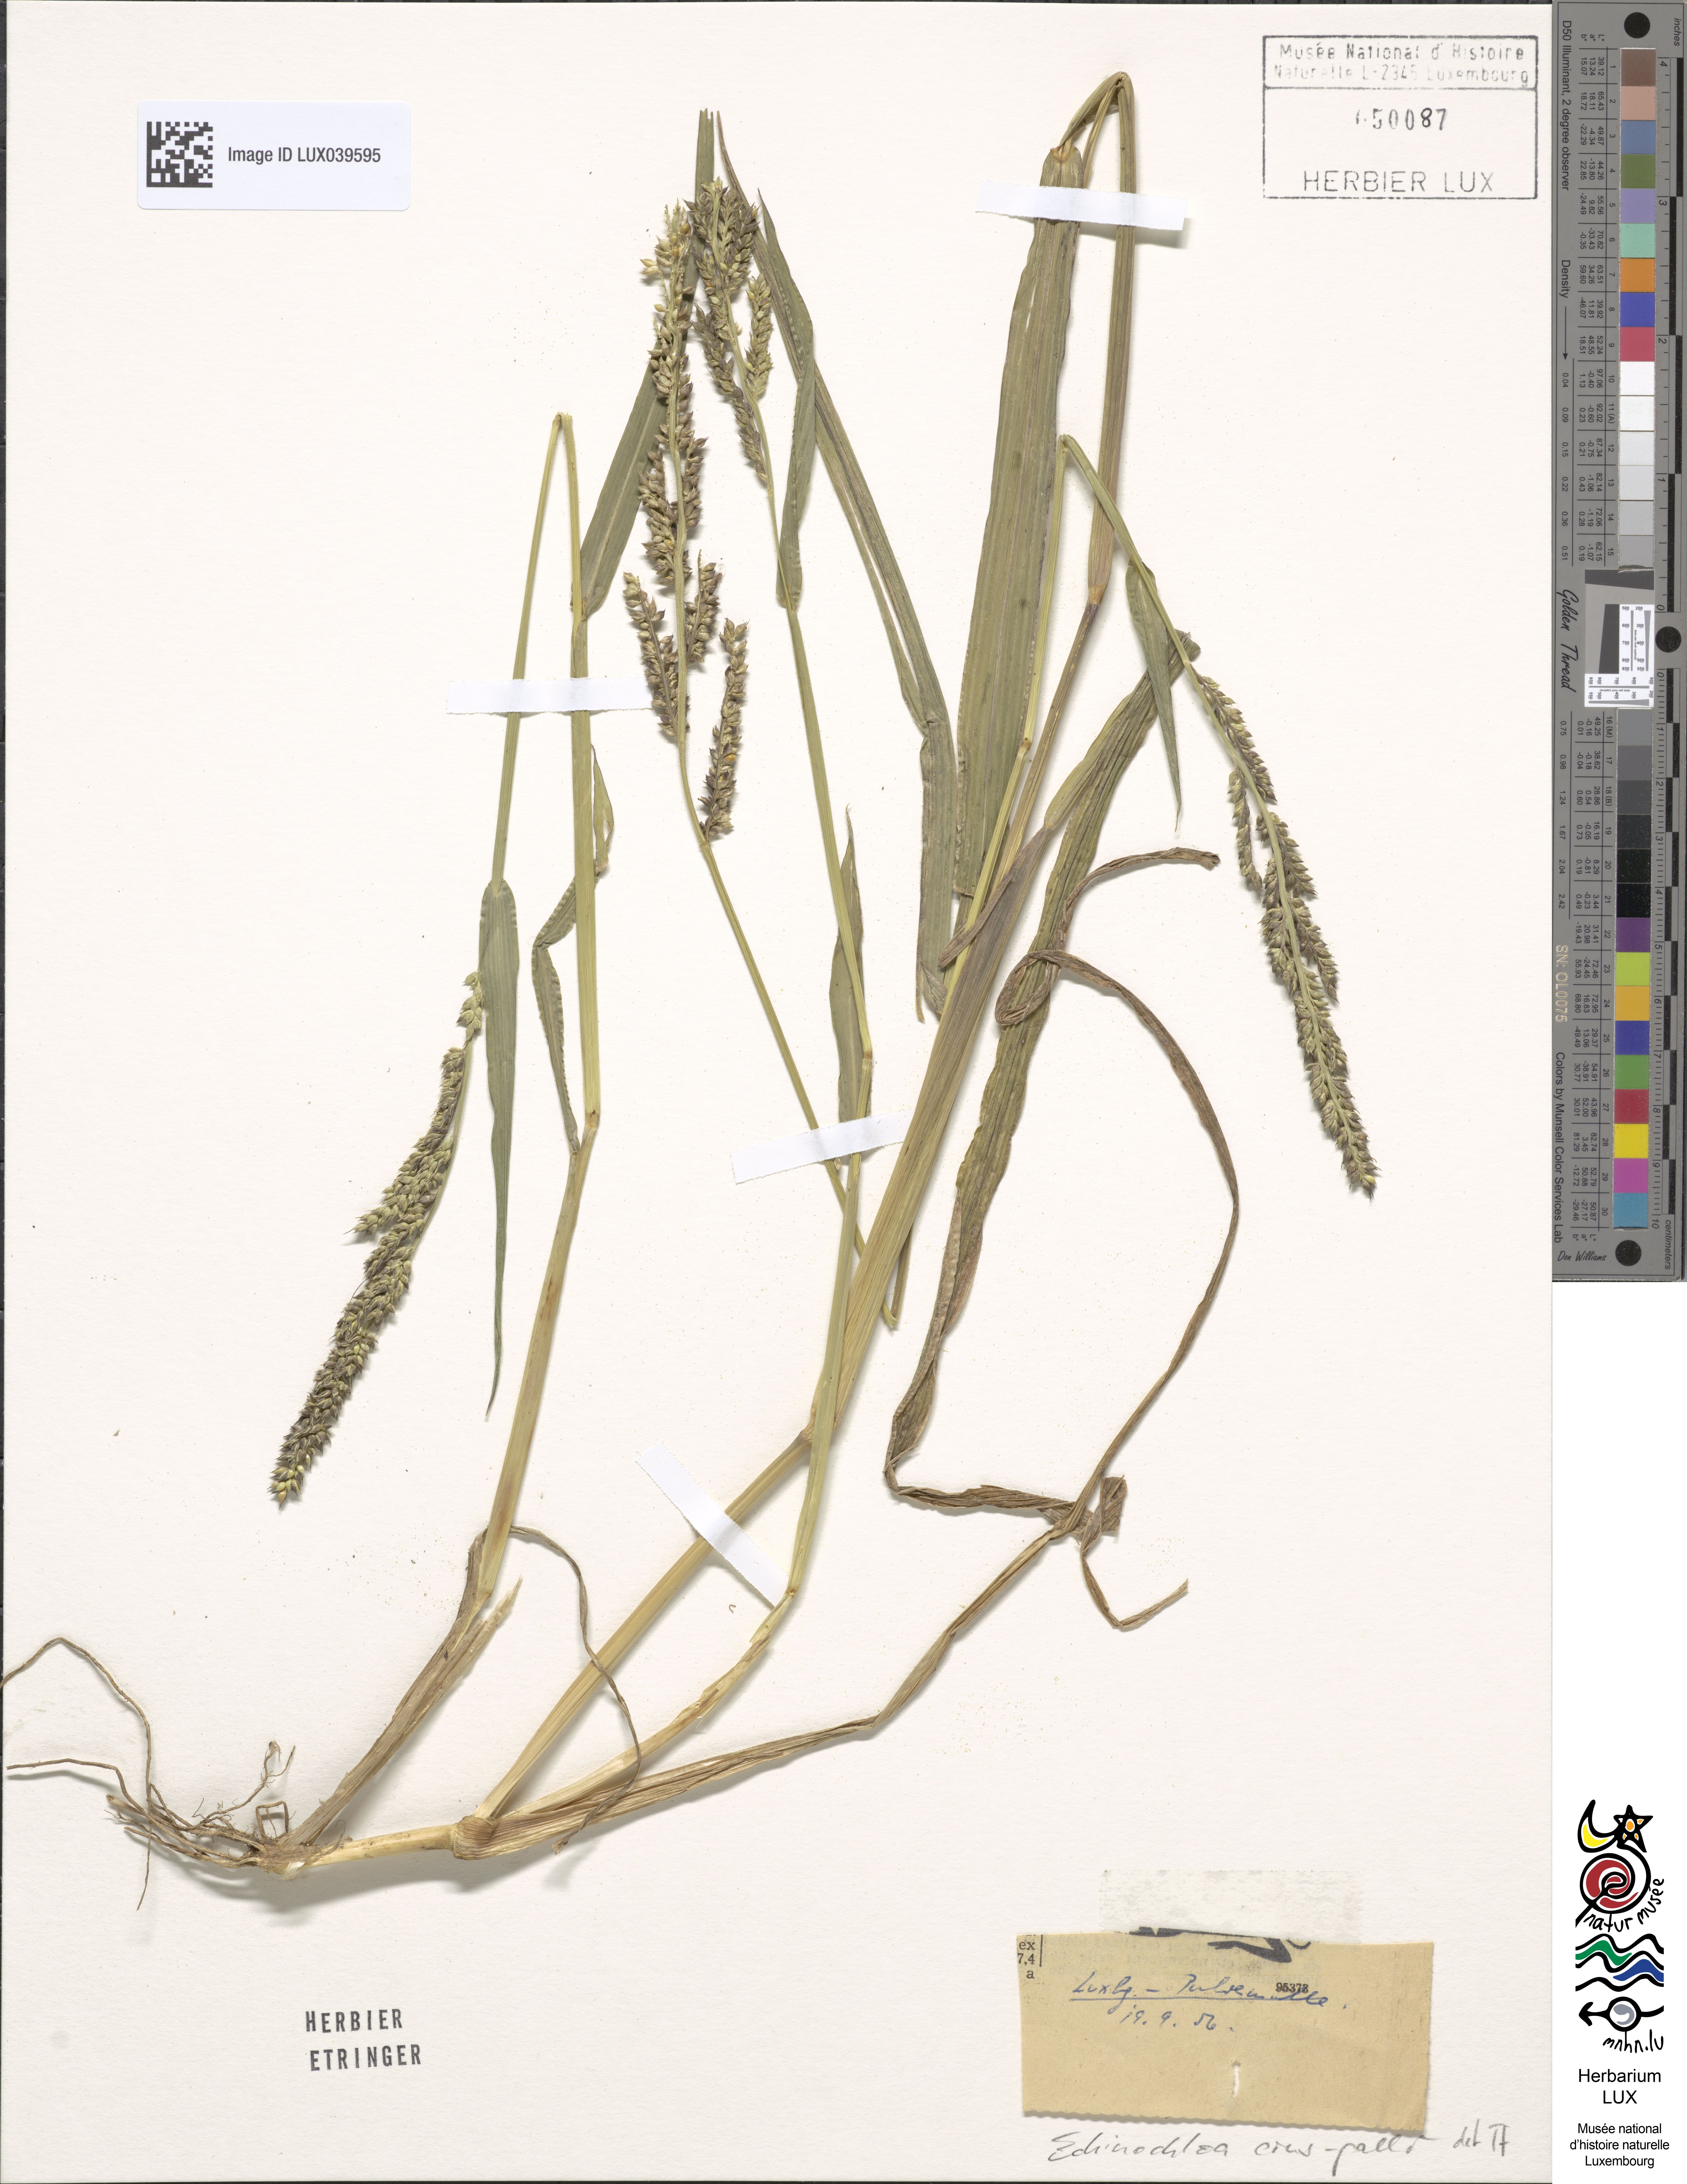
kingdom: Plantae
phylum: Tracheophyta
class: Liliopsida
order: Poales
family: Poaceae
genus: Echinochloa
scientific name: Echinochloa crus-galli
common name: Cockspur
